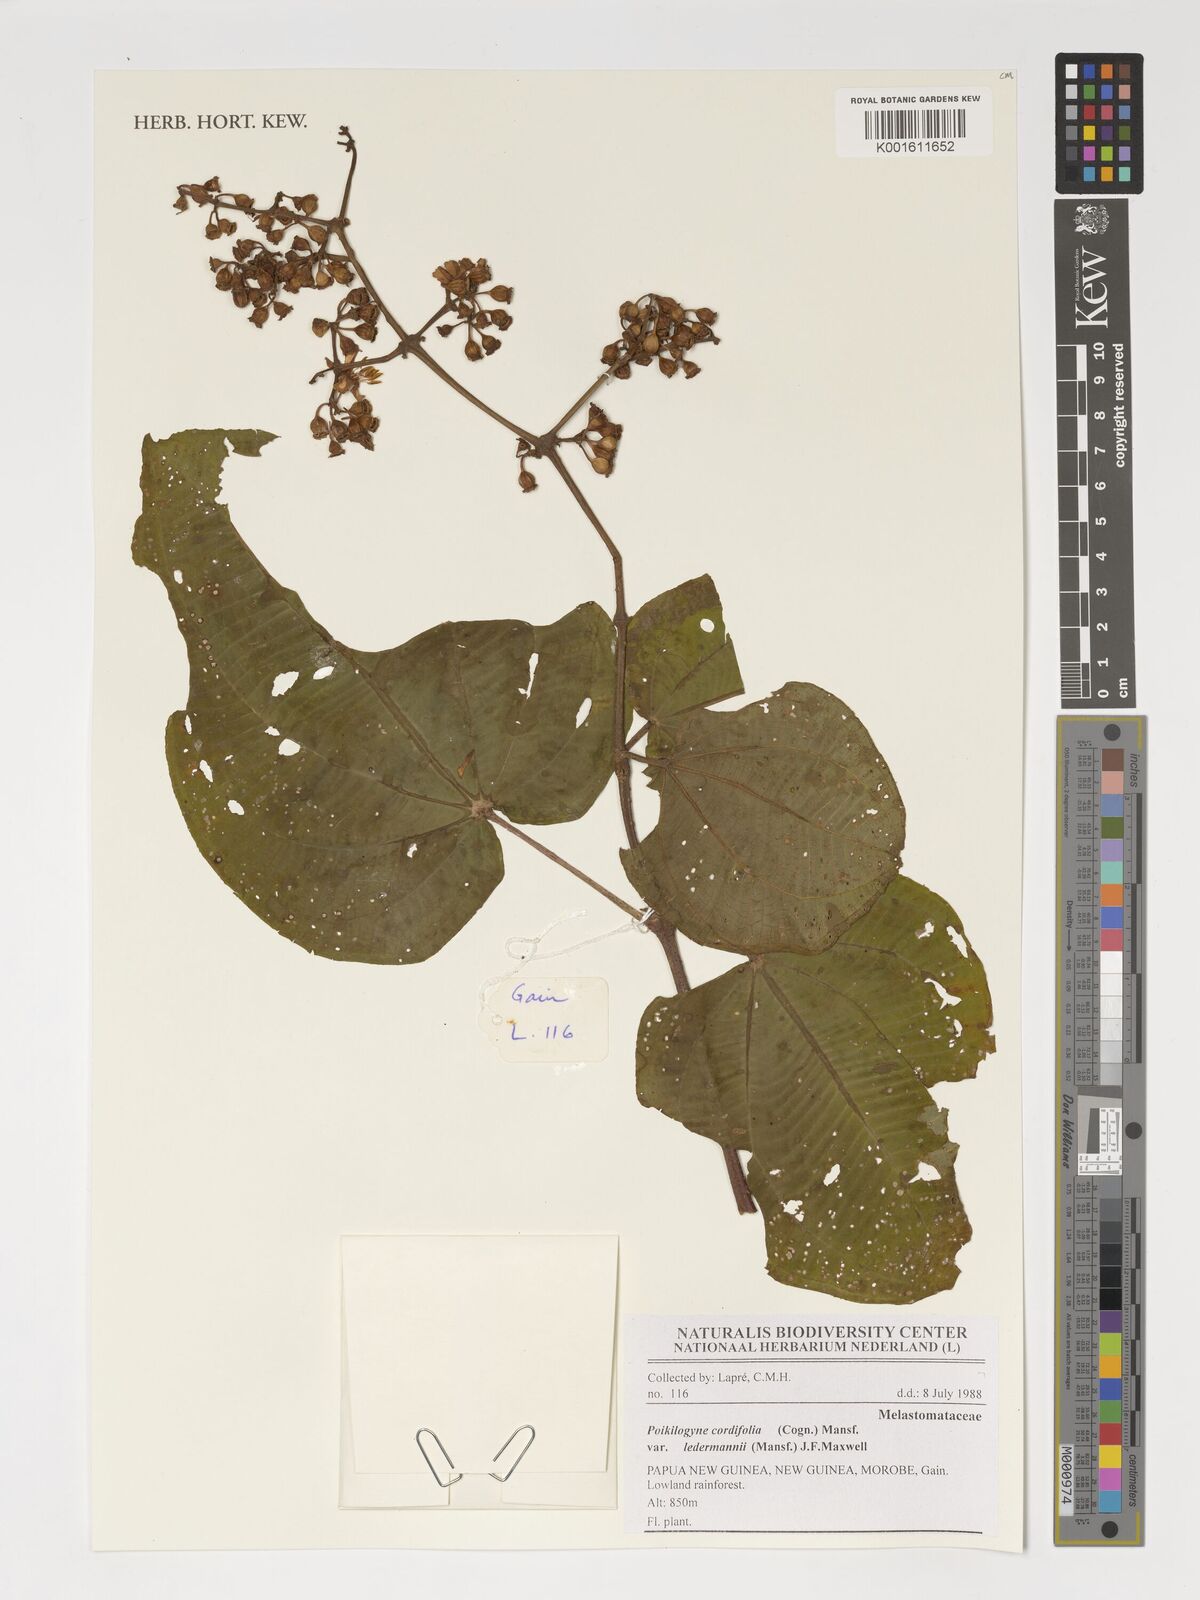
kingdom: Plantae
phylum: Tracheophyta
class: Magnoliopsida
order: Myrtales
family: Melastomataceae
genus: Poikilogyne
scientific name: Poikilogyne cordifolia
